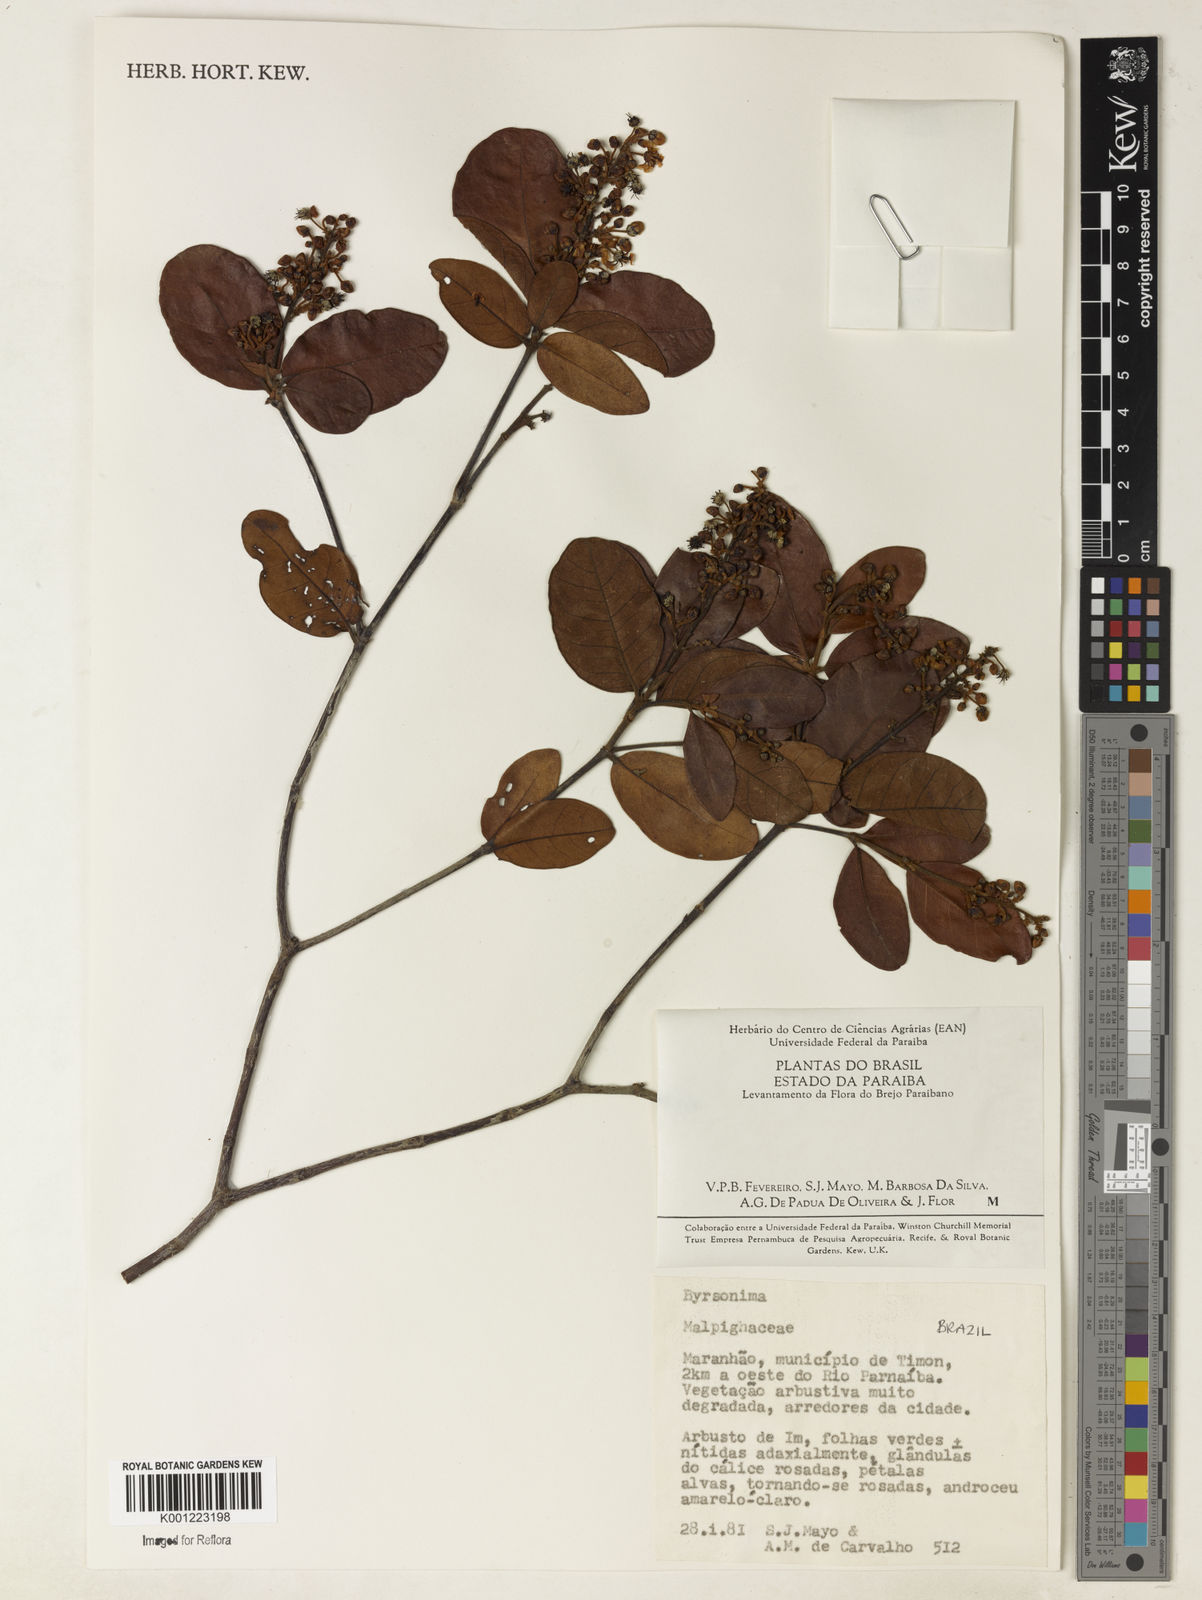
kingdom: Plantae
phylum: Tracheophyta
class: Magnoliopsida
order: Malpighiales
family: Malpighiaceae
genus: Byrsonima
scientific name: Byrsonima
